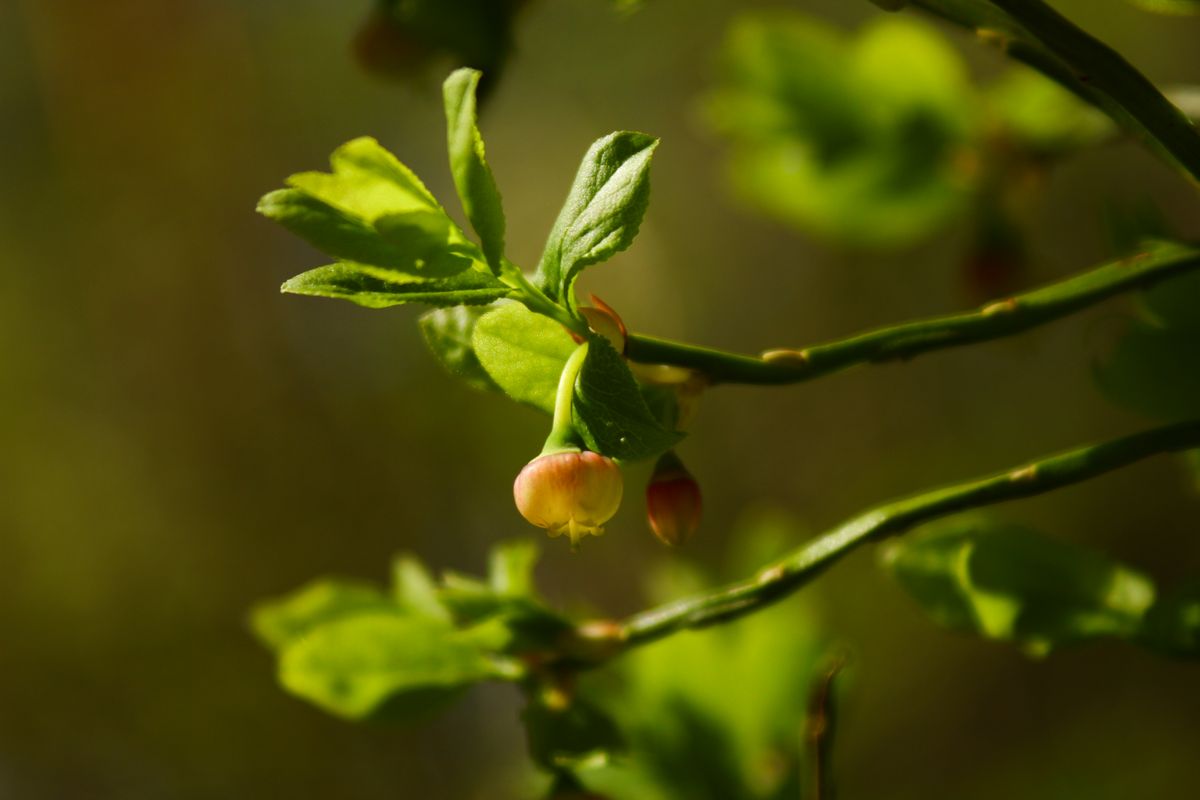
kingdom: Plantae
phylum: Tracheophyta
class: Magnoliopsida
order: Ericales
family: Ericaceae
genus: Vaccinium
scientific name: Vaccinium myrtillus
